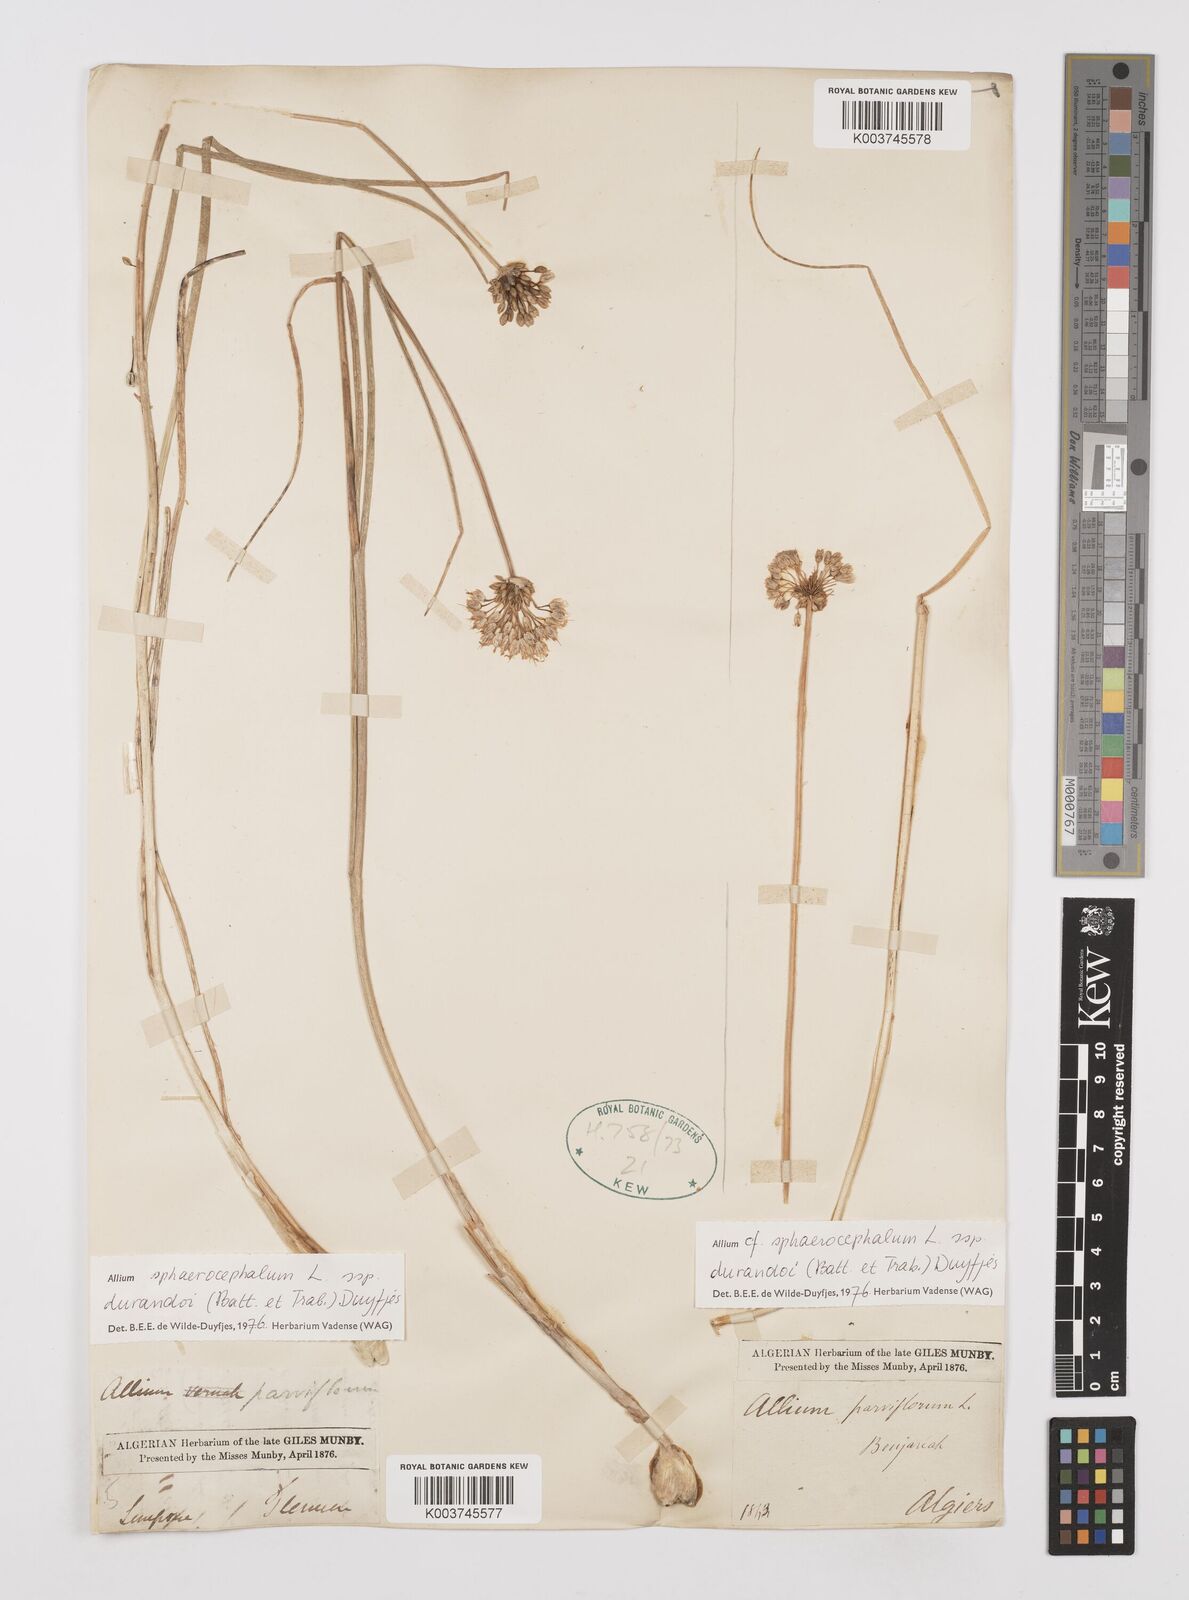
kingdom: Plantae
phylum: Tracheophyta
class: Liliopsida
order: Asparagales
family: Amaryllidaceae
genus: Allium
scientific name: Allium sphaerocephalon
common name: Round-headed leek
